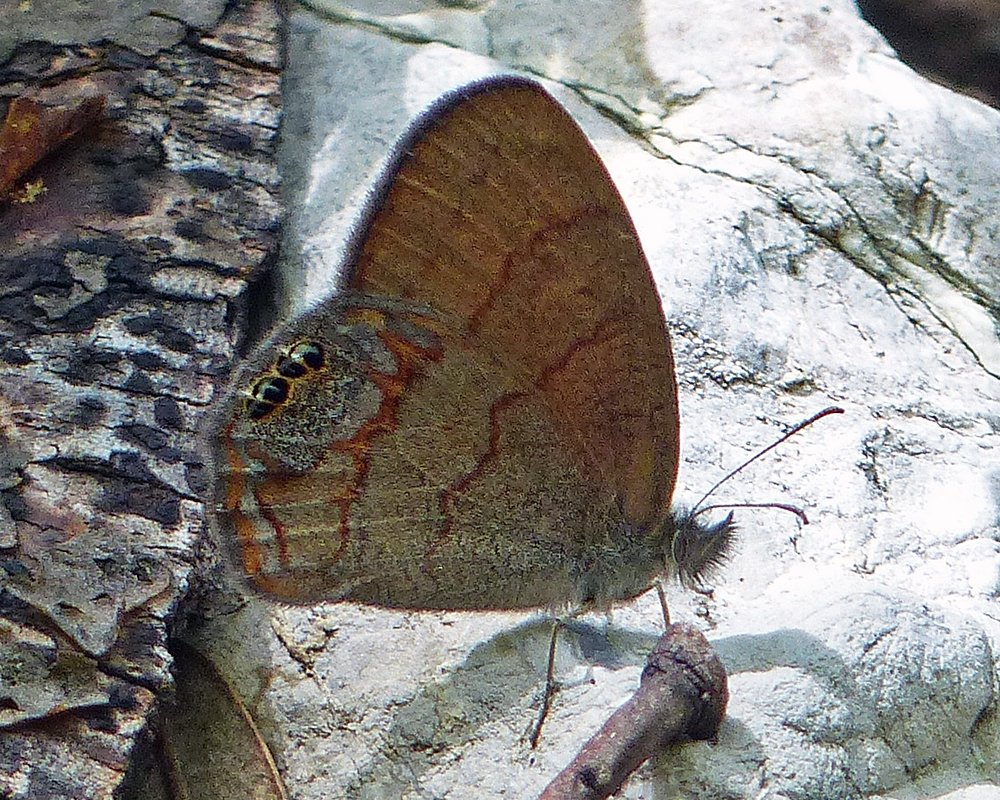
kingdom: Animalia
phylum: Arthropoda
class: Insecta
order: Lepidoptera
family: Nymphalidae
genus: Euptychia
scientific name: Euptychia pyracmon
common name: Nabokov's Satyr
